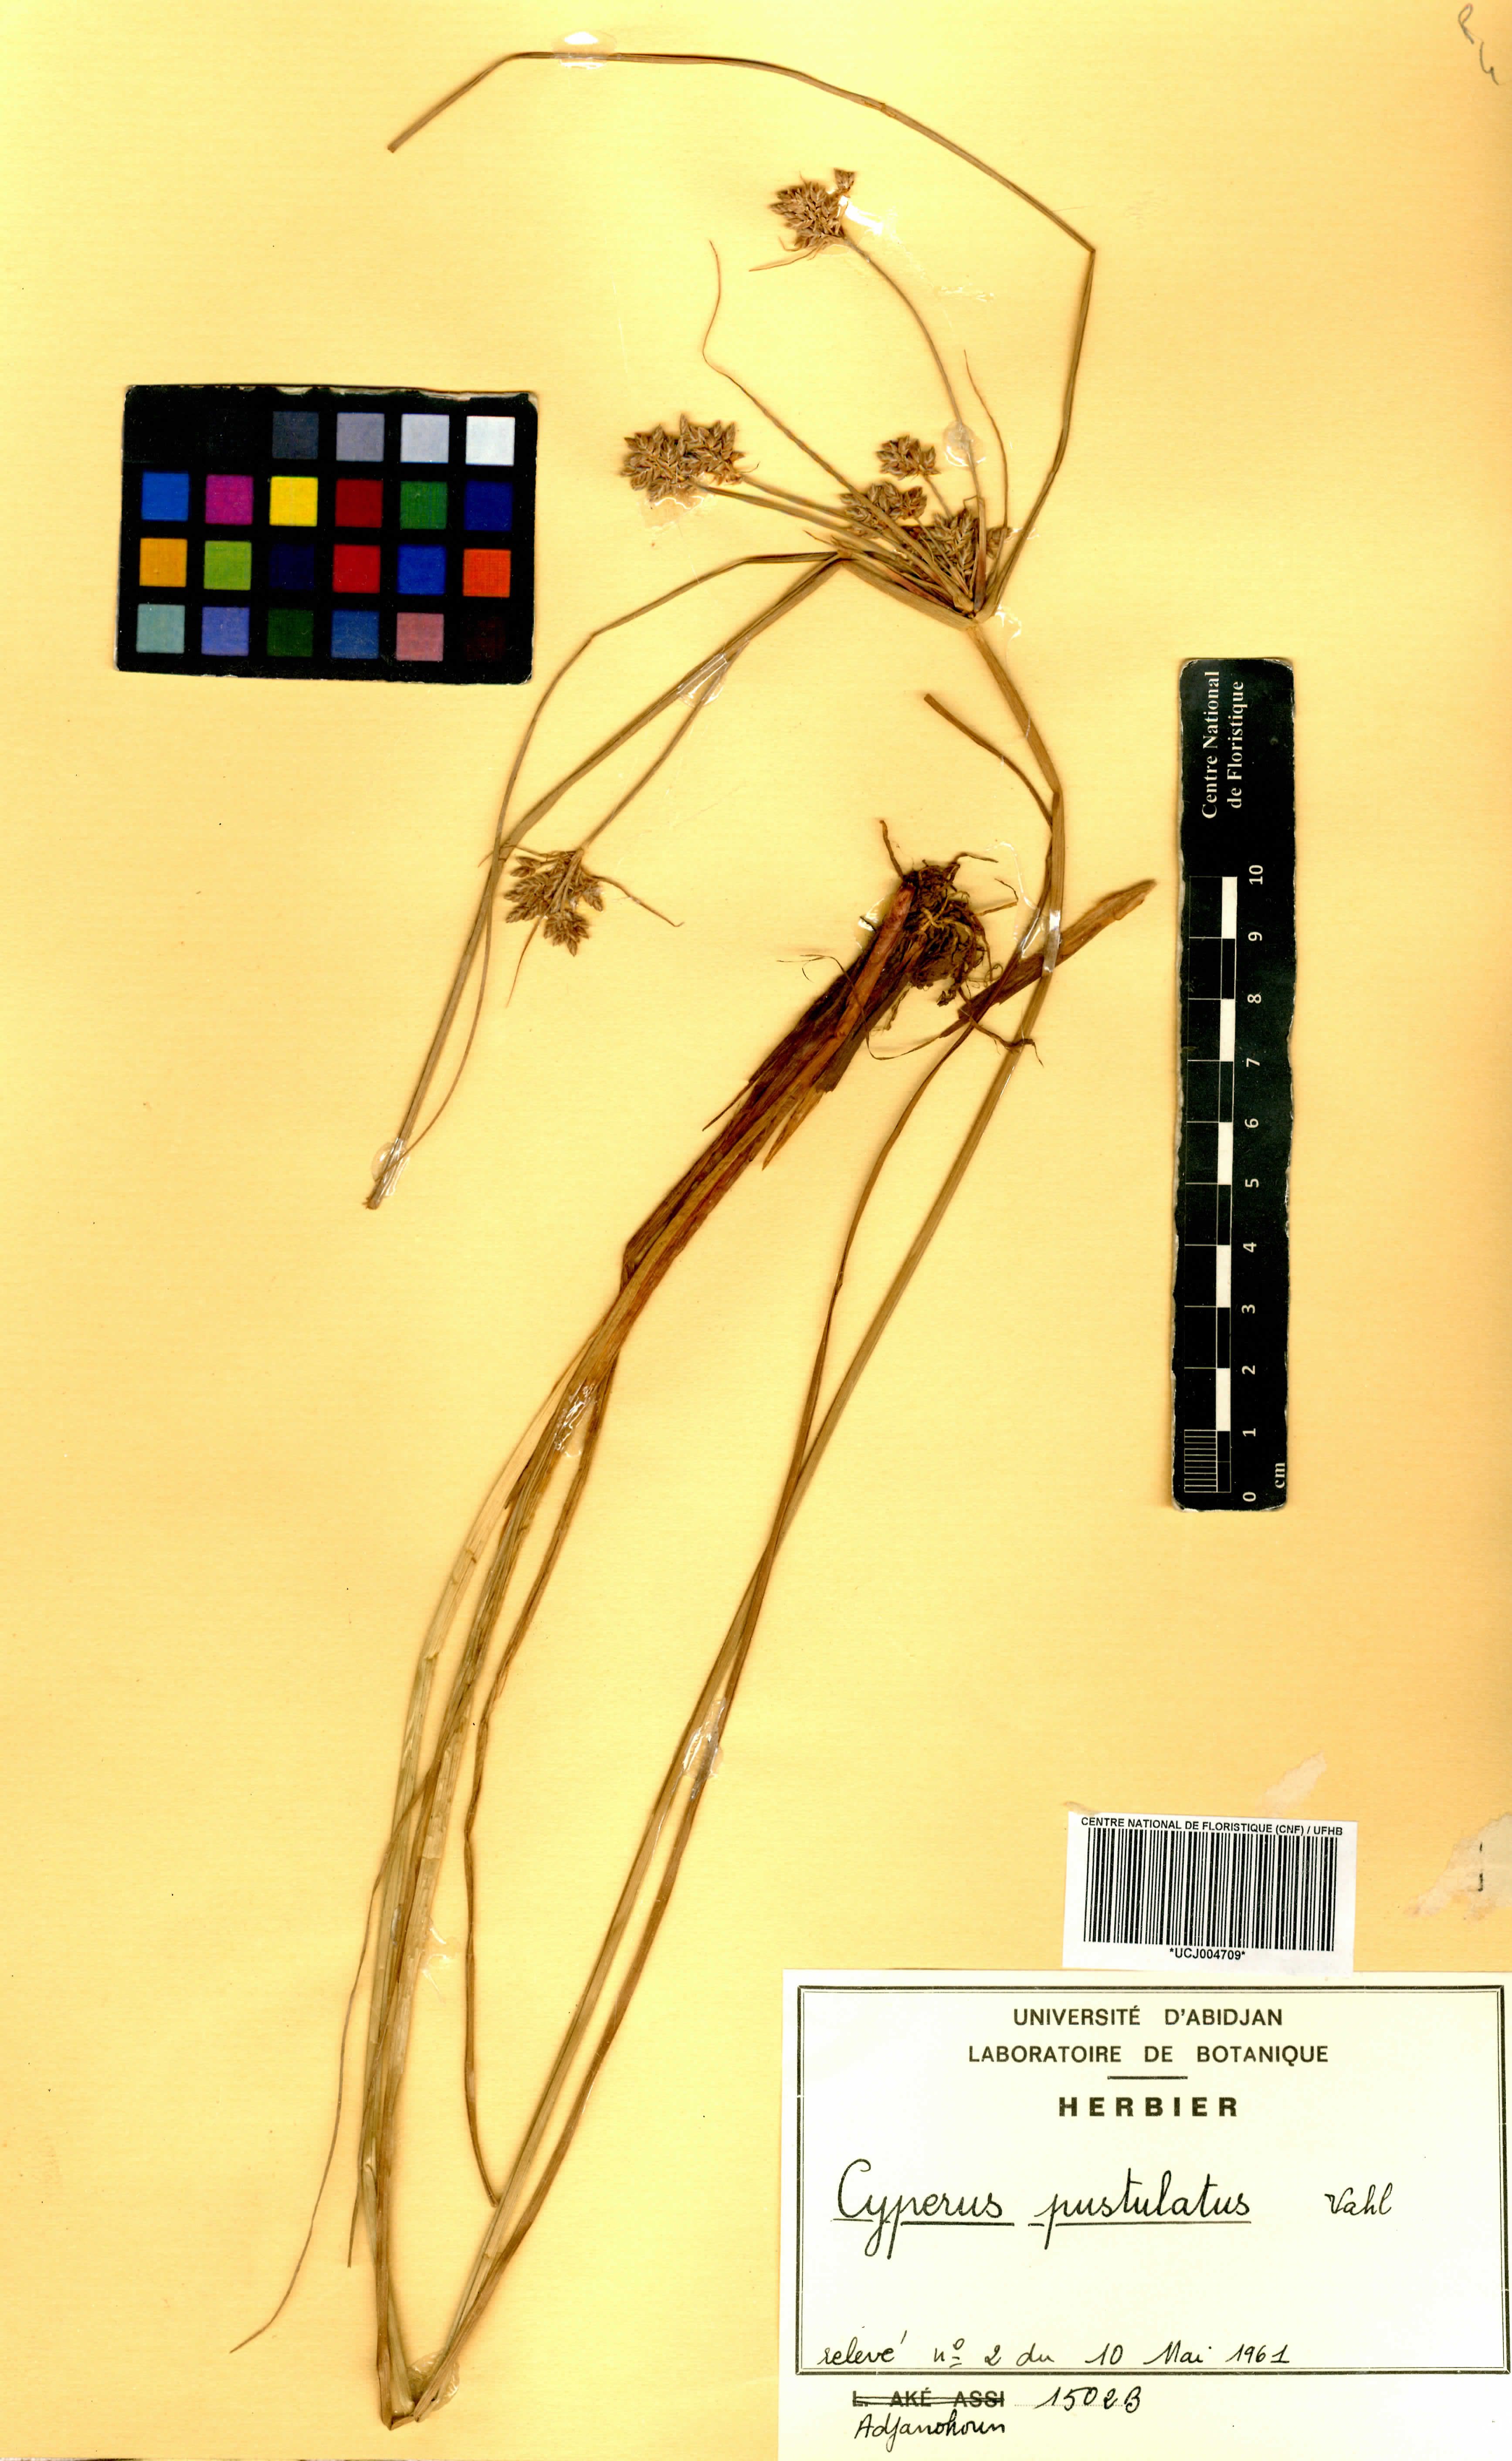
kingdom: Plantae
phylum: Tracheophyta
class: Liliopsida
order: Poales
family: Cyperaceae
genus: Cyperus
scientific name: Cyperus pustulatus
